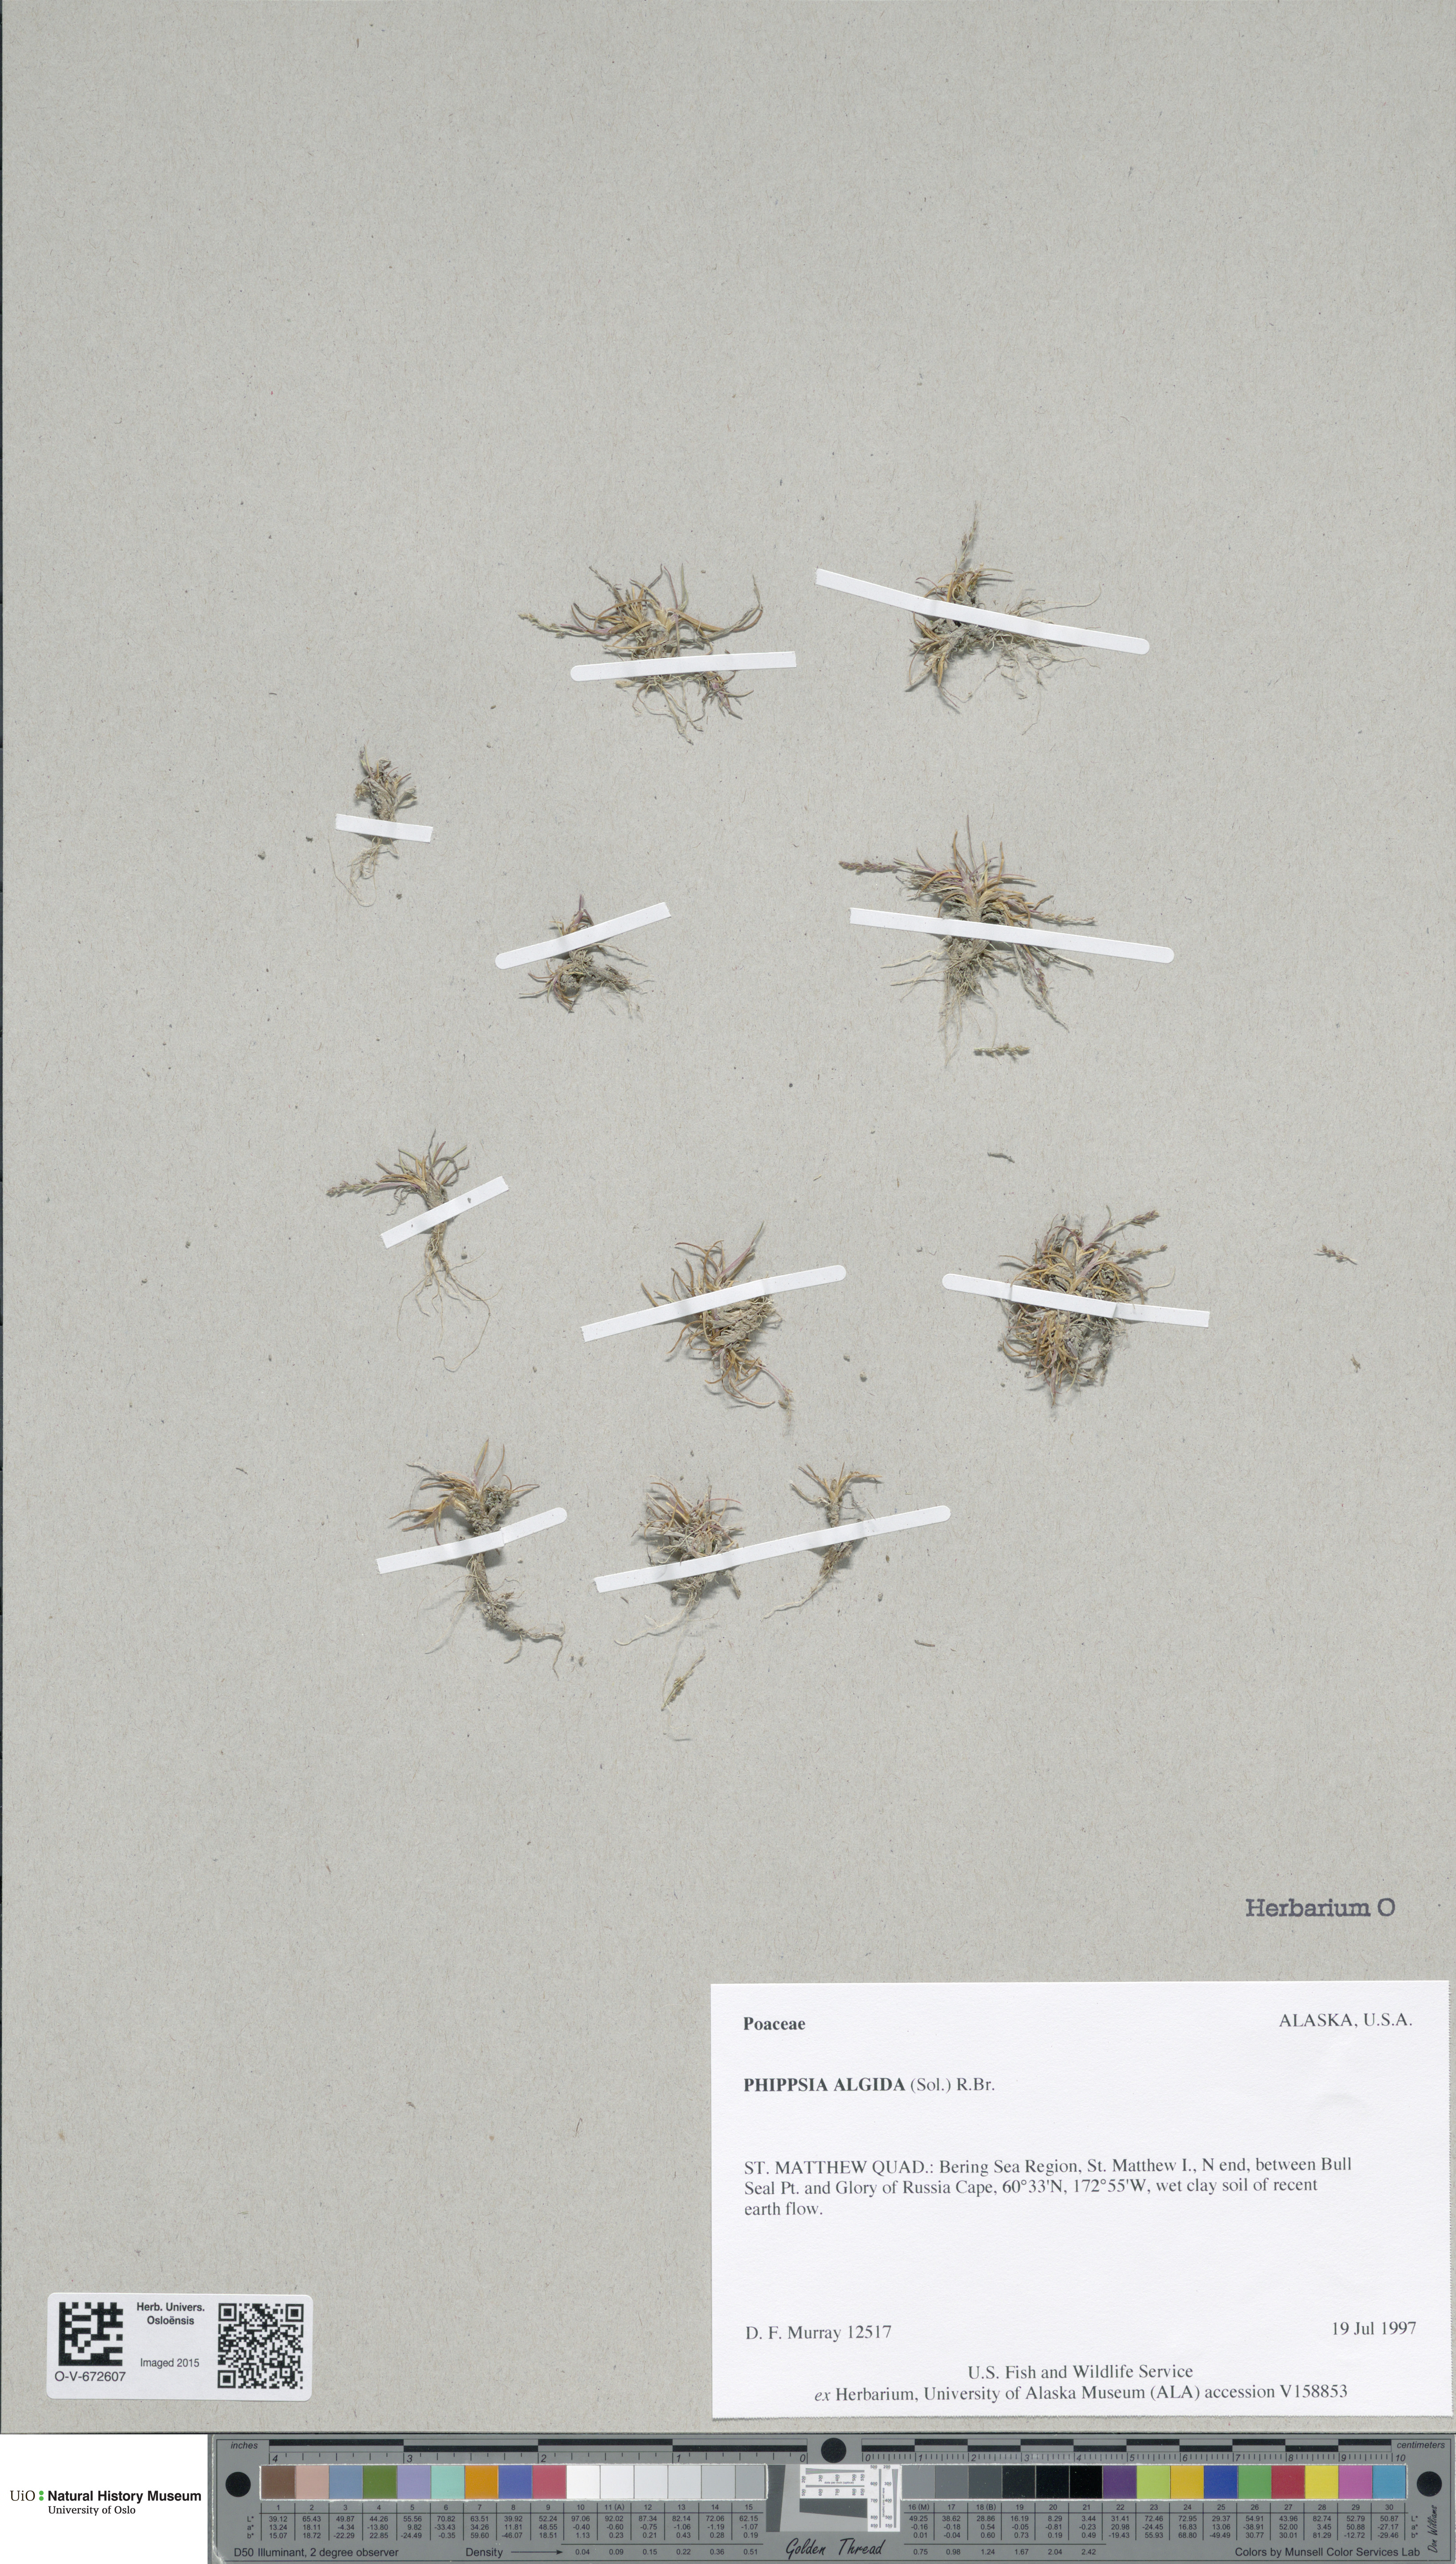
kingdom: Plantae
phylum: Tracheophyta
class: Liliopsida
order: Poales
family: Poaceae
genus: Phippsia
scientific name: Phippsia algida
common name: Ice grass
